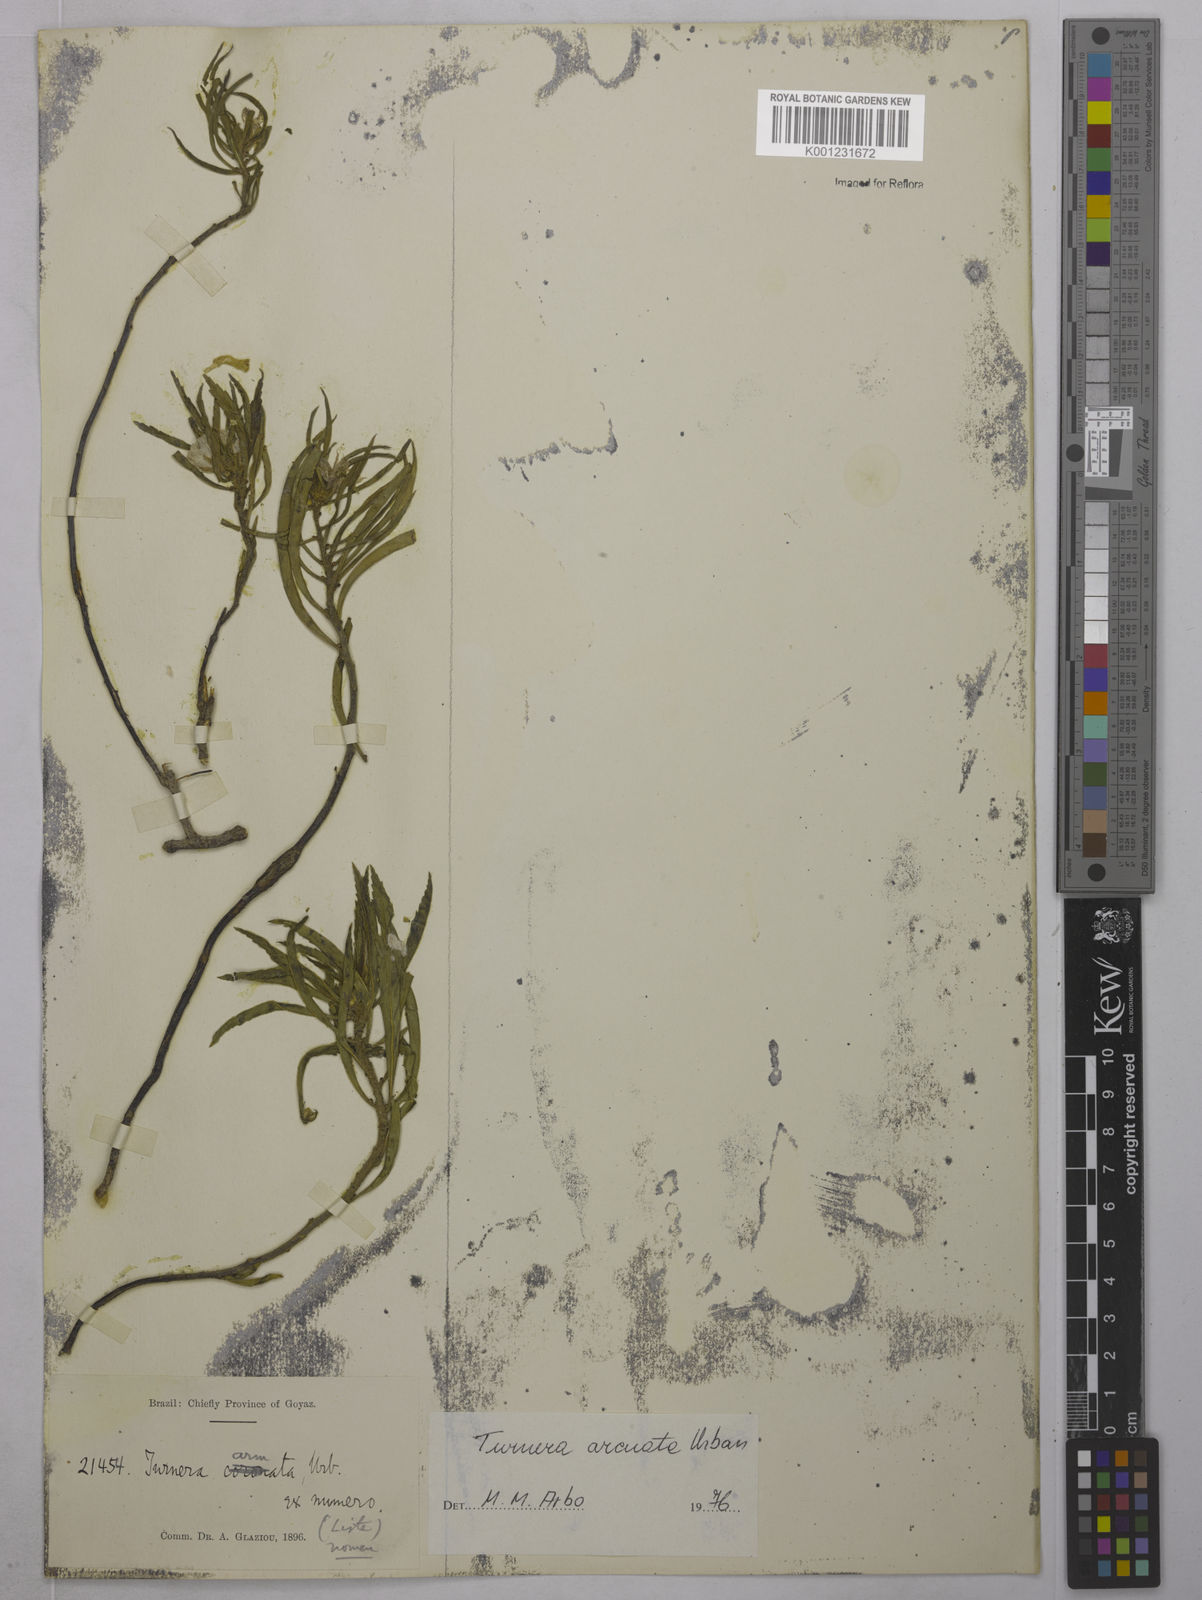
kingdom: Plantae
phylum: Tracheophyta
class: Magnoliopsida
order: Malpighiales
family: Turneraceae
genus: Turnera
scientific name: Turnera arcuata
